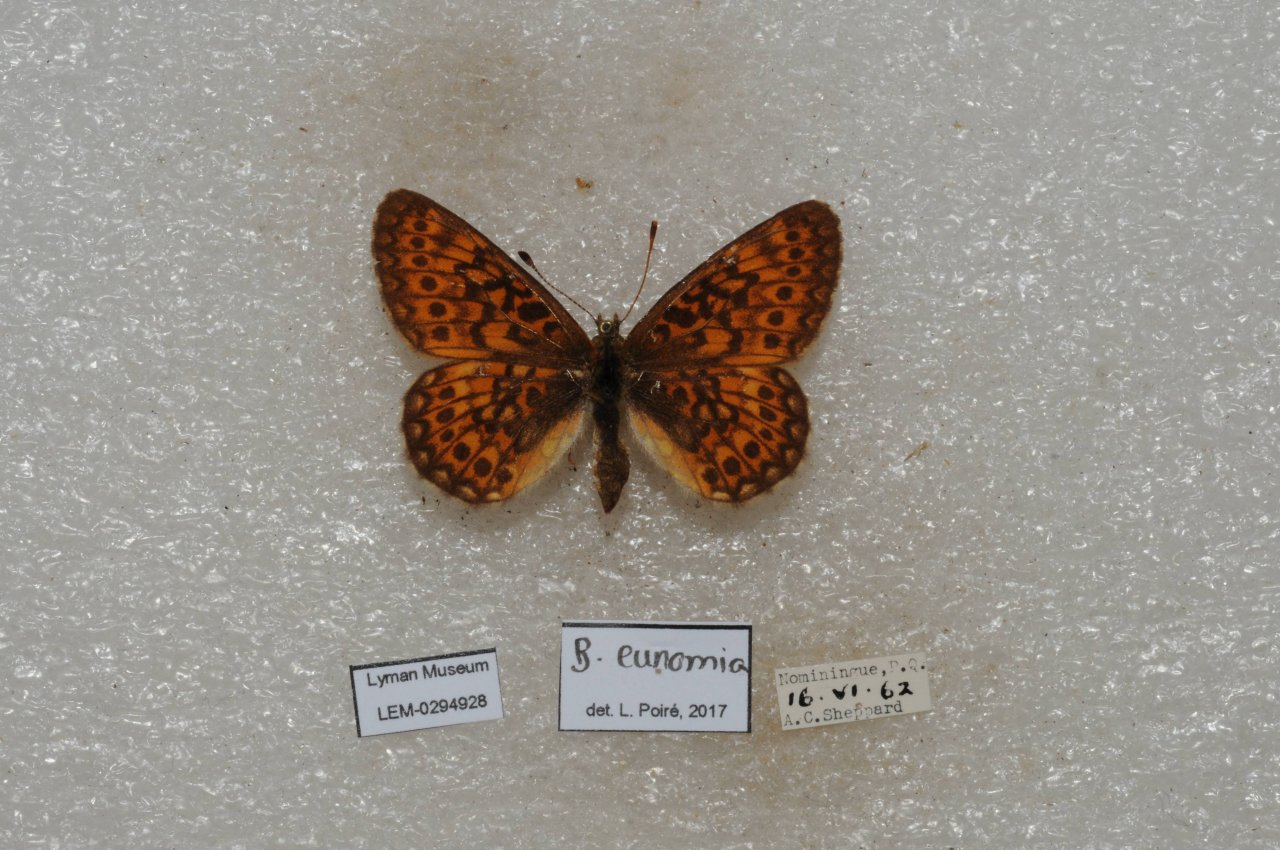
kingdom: Animalia
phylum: Arthropoda
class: Insecta
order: Lepidoptera
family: Nymphalidae
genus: Boloria
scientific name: Boloria eunomia
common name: Bog Fritillary
